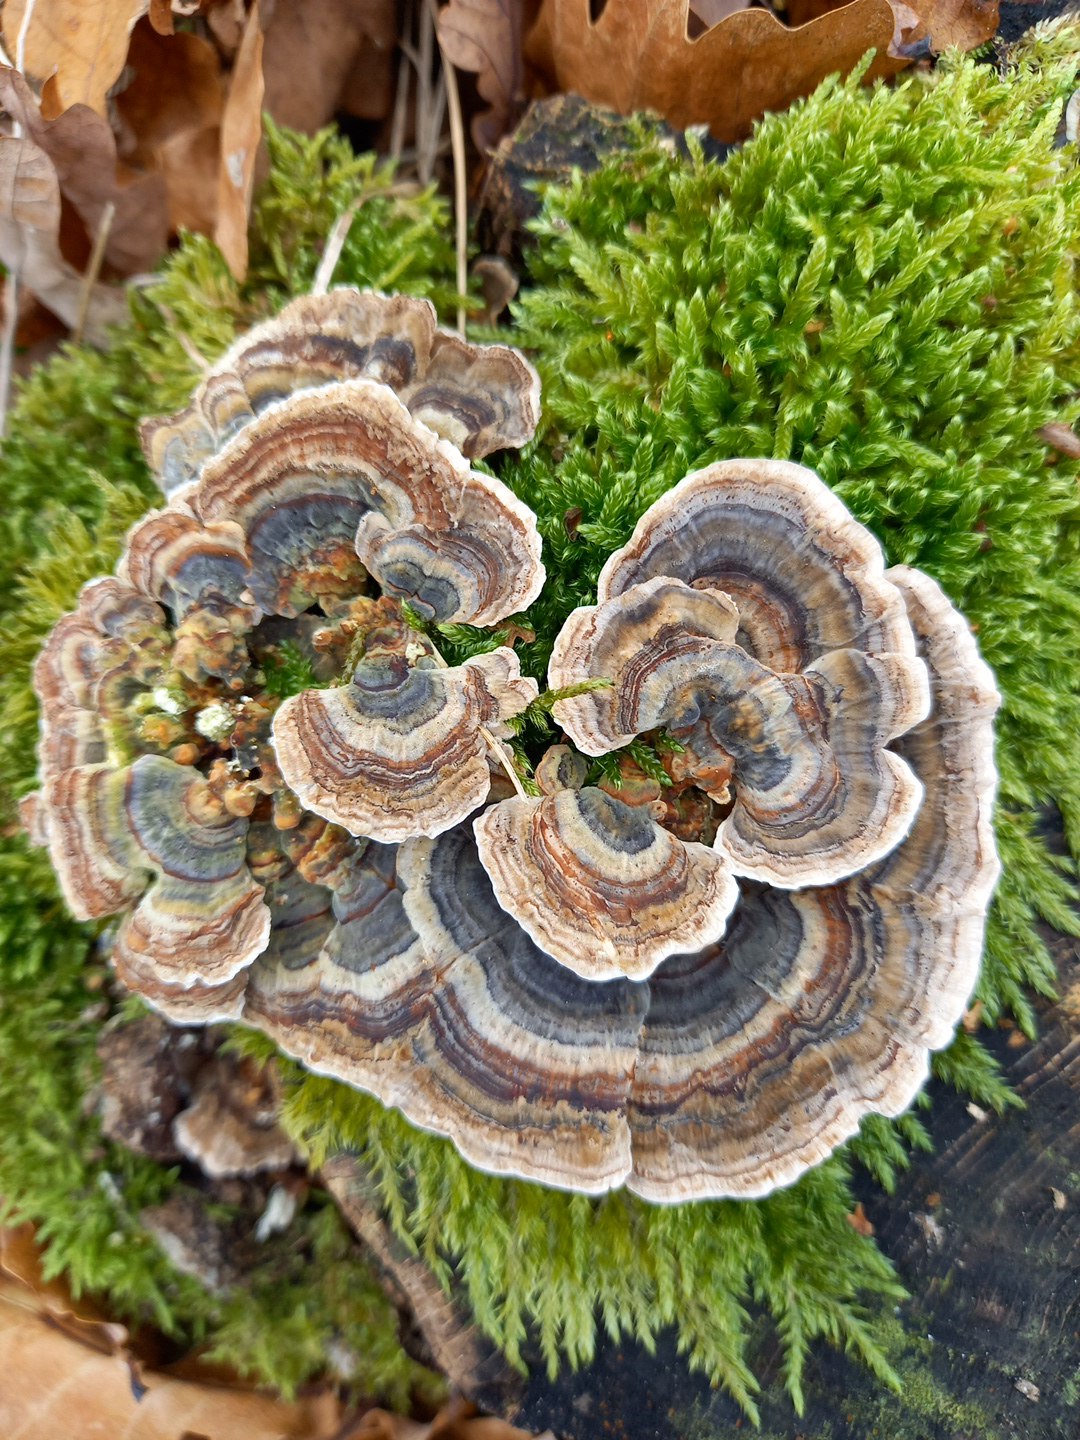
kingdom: Fungi
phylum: Basidiomycota
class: Agaricomycetes
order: Polyporales
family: Polyporaceae
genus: Trametes
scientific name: Trametes versicolor
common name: broget læderporesvamp
